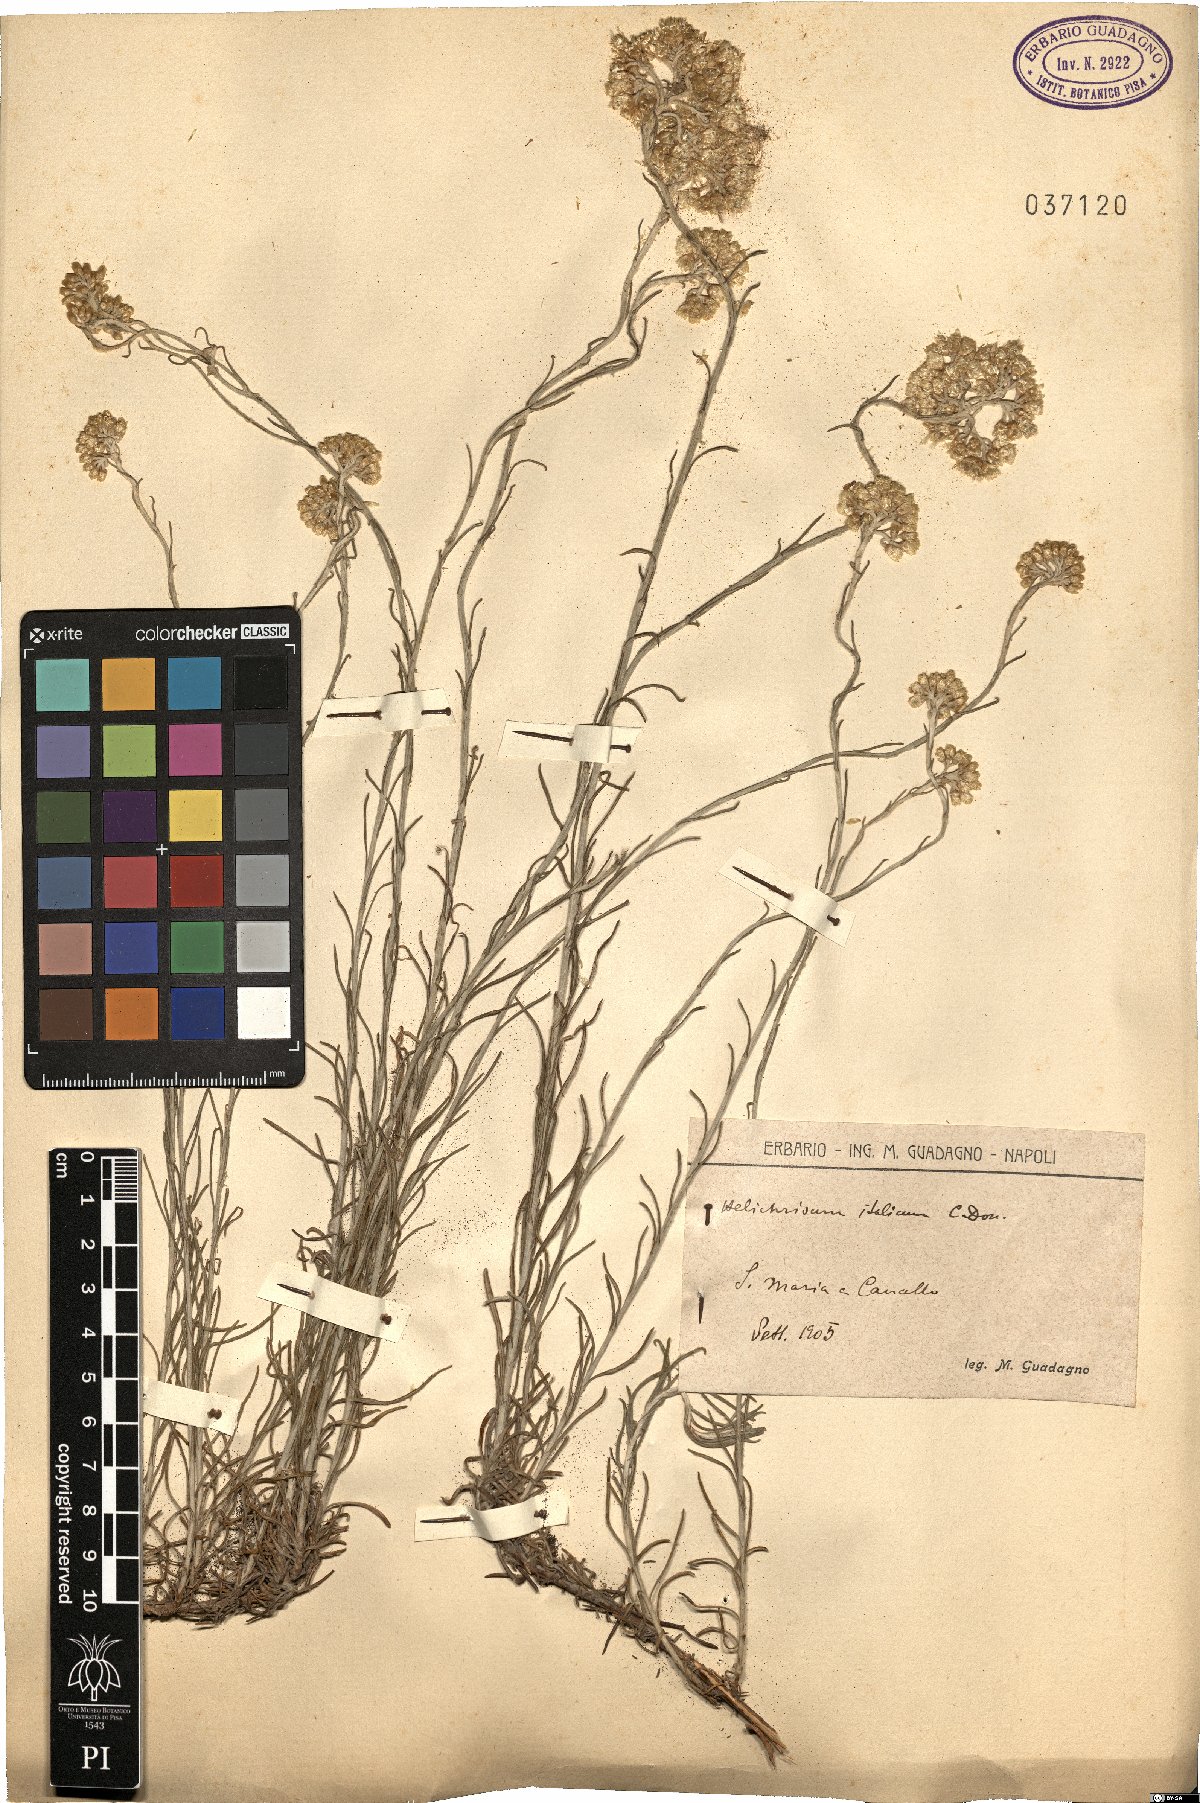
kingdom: Plantae
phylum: Tracheophyta
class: Magnoliopsida
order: Asterales
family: Asteraceae
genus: Helichrysum
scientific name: Helichrysum italicum
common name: Curryplant
